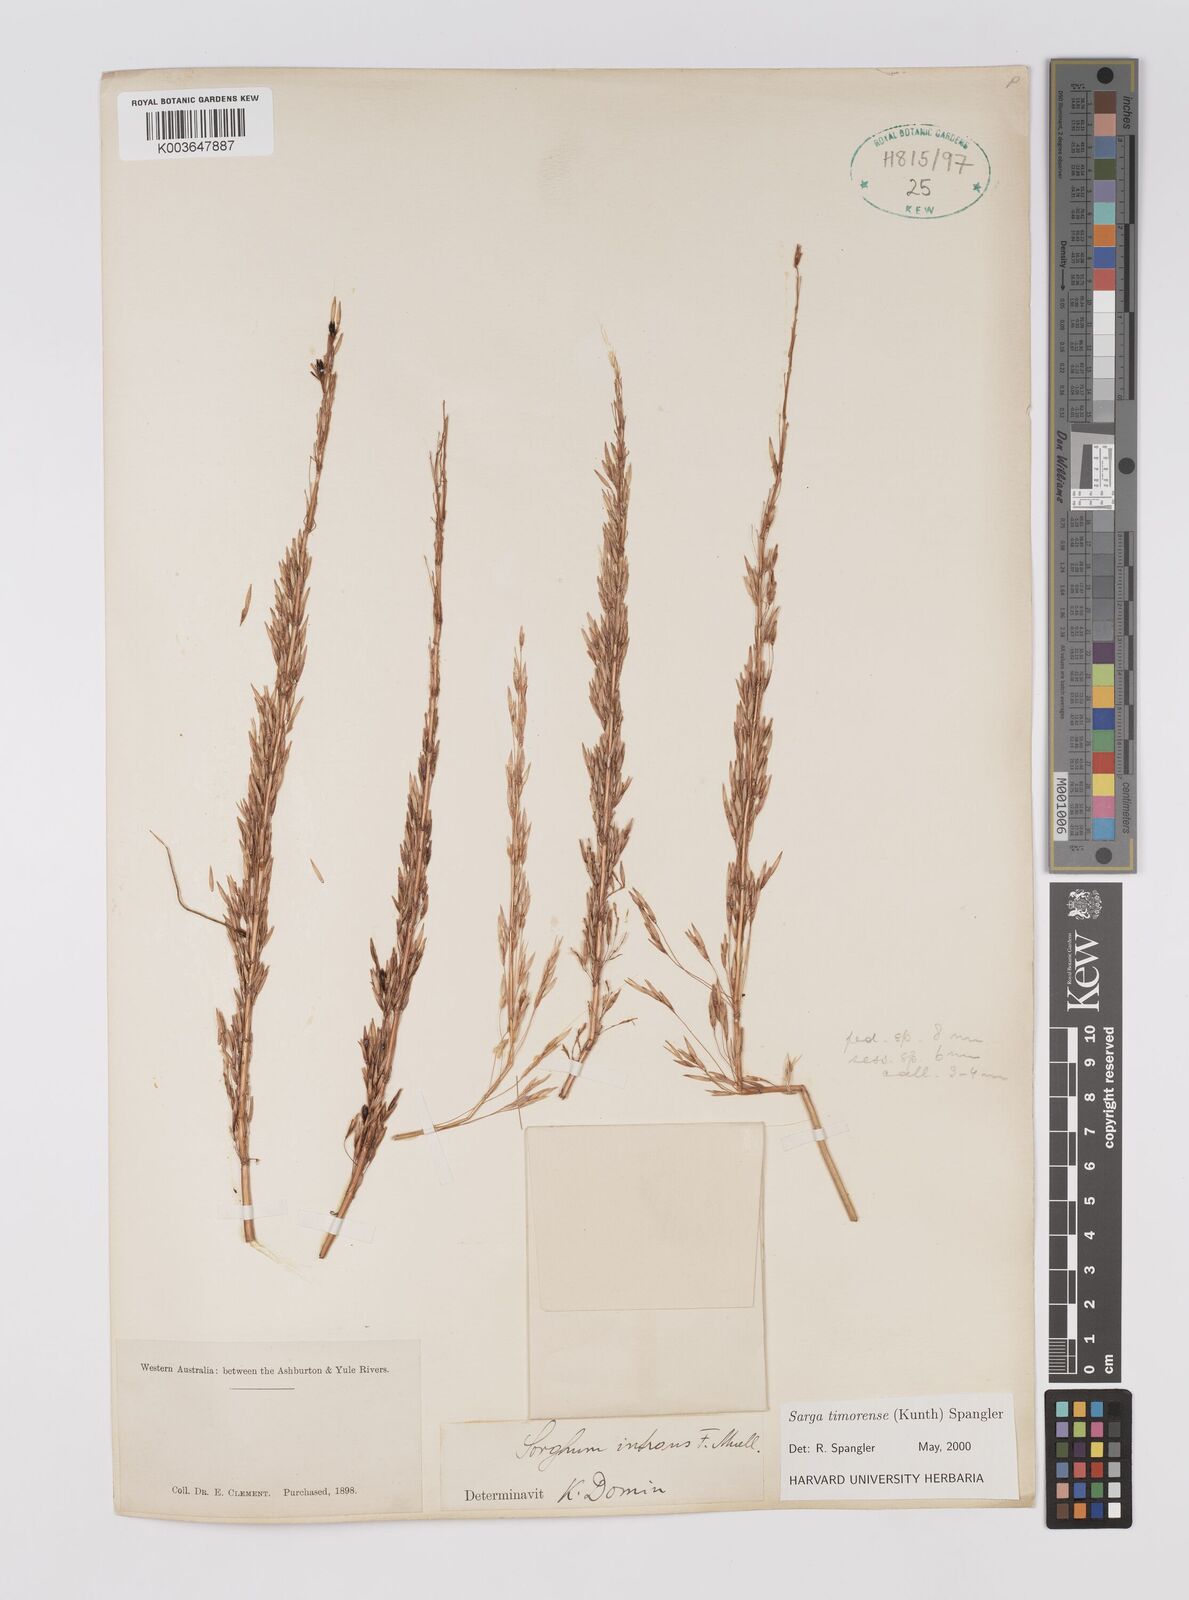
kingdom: Plantae
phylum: Tracheophyta
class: Liliopsida
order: Poales
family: Poaceae
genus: Sarga
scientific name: Sarga timorensis
